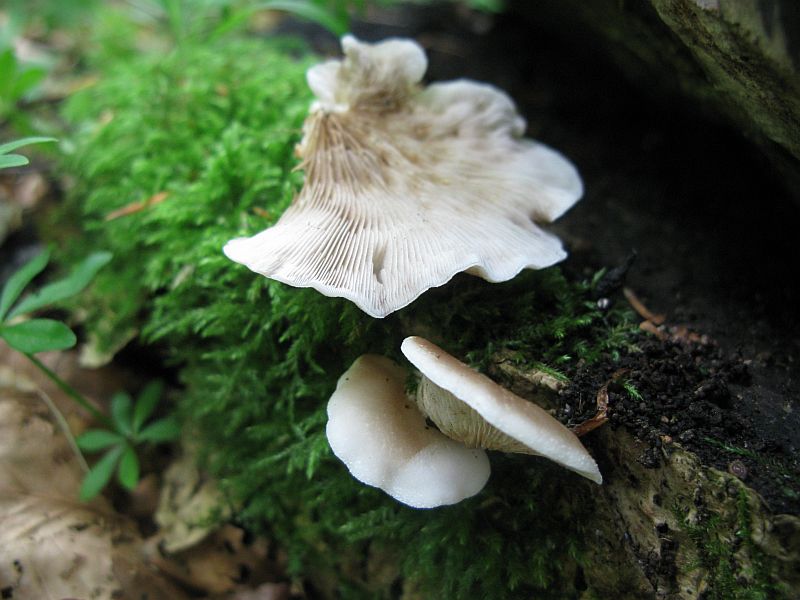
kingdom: Fungi
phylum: Basidiomycota
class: Agaricomycetes
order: Agaricales
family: Crepidotaceae
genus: Crepidotus
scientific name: Crepidotus mollis
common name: blød muslingesvamp
